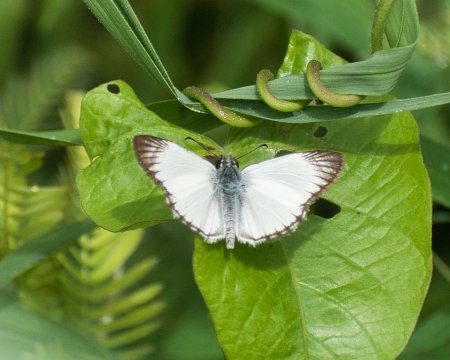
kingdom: Animalia
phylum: Arthropoda
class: Insecta
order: Lepidoptera
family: Hesperiidae
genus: Heliopetes
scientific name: Heliopetes arsalte
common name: Veined White-Skipper
